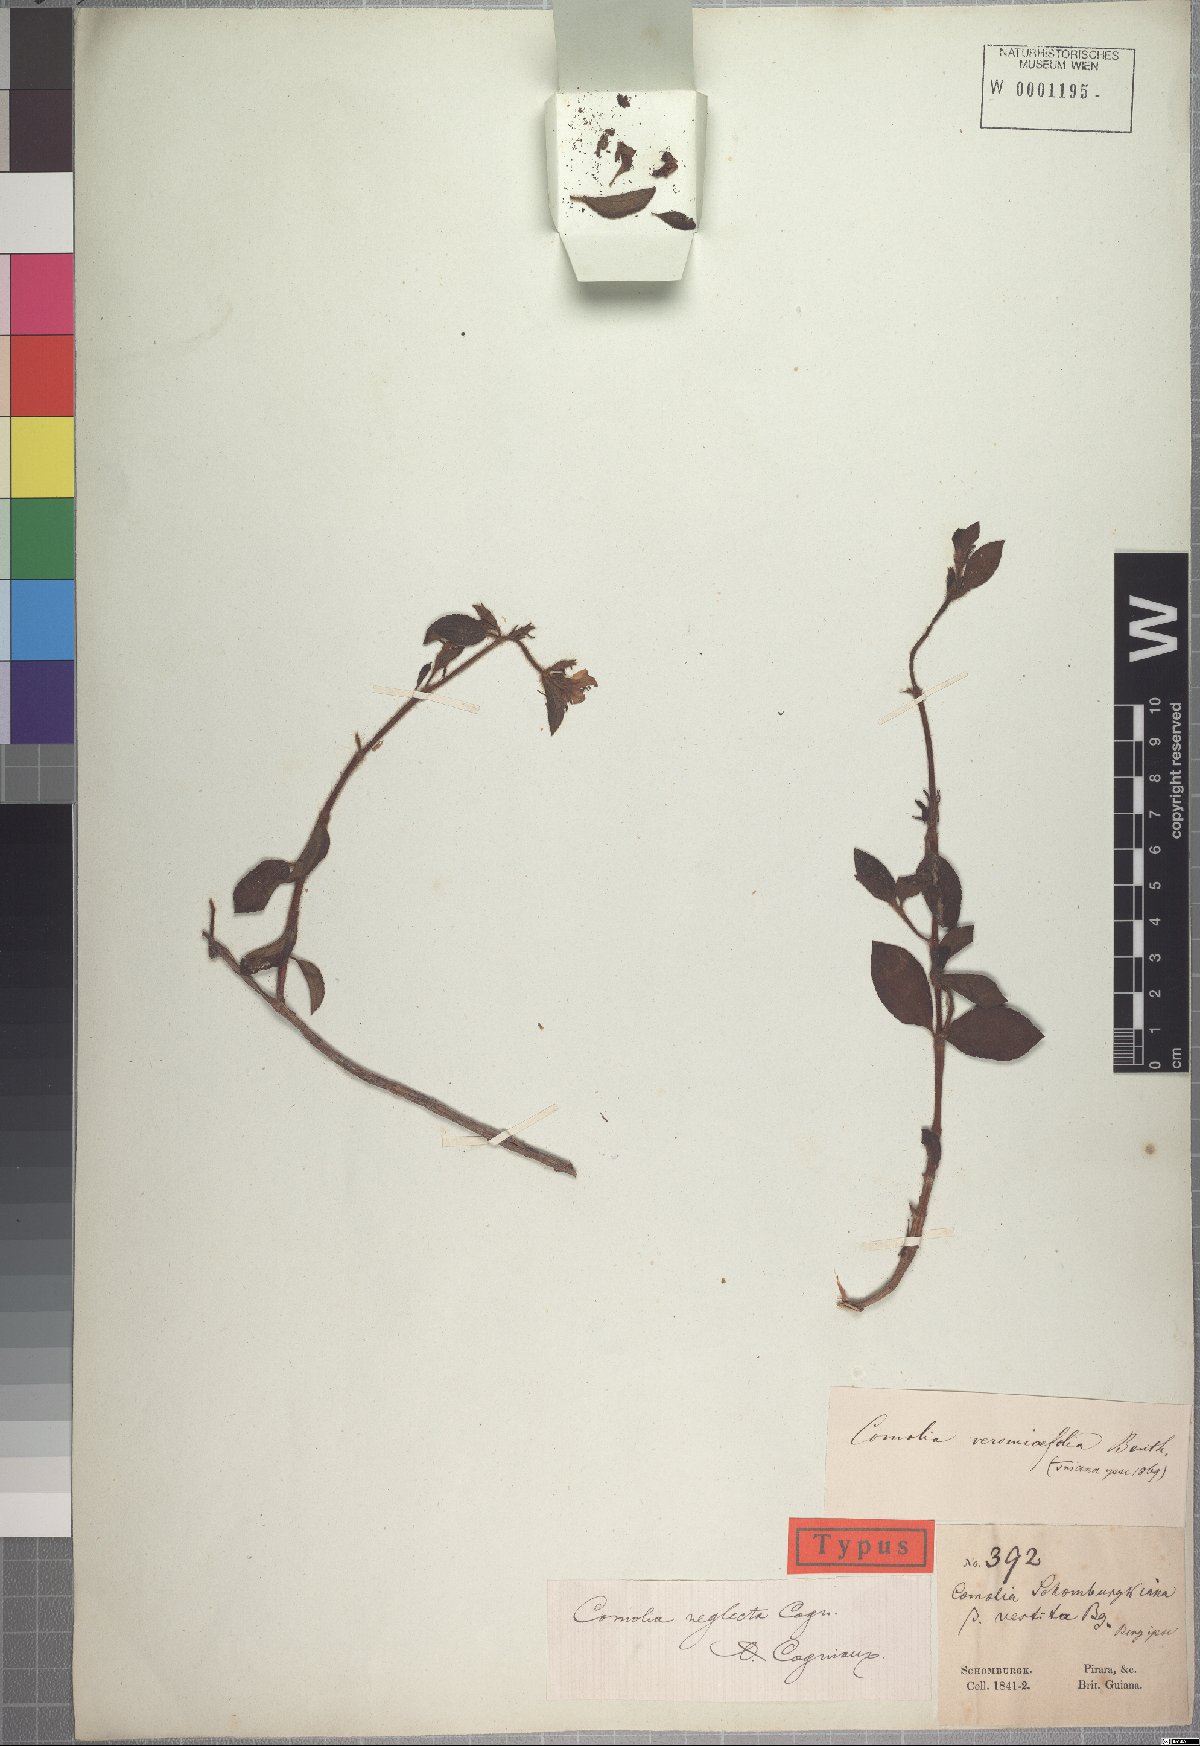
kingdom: Plantae
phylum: Tracheophyta
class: Magnoliopsida
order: Myrtales
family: Melastomataceae
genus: Comolia
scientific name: Comolia villosa
